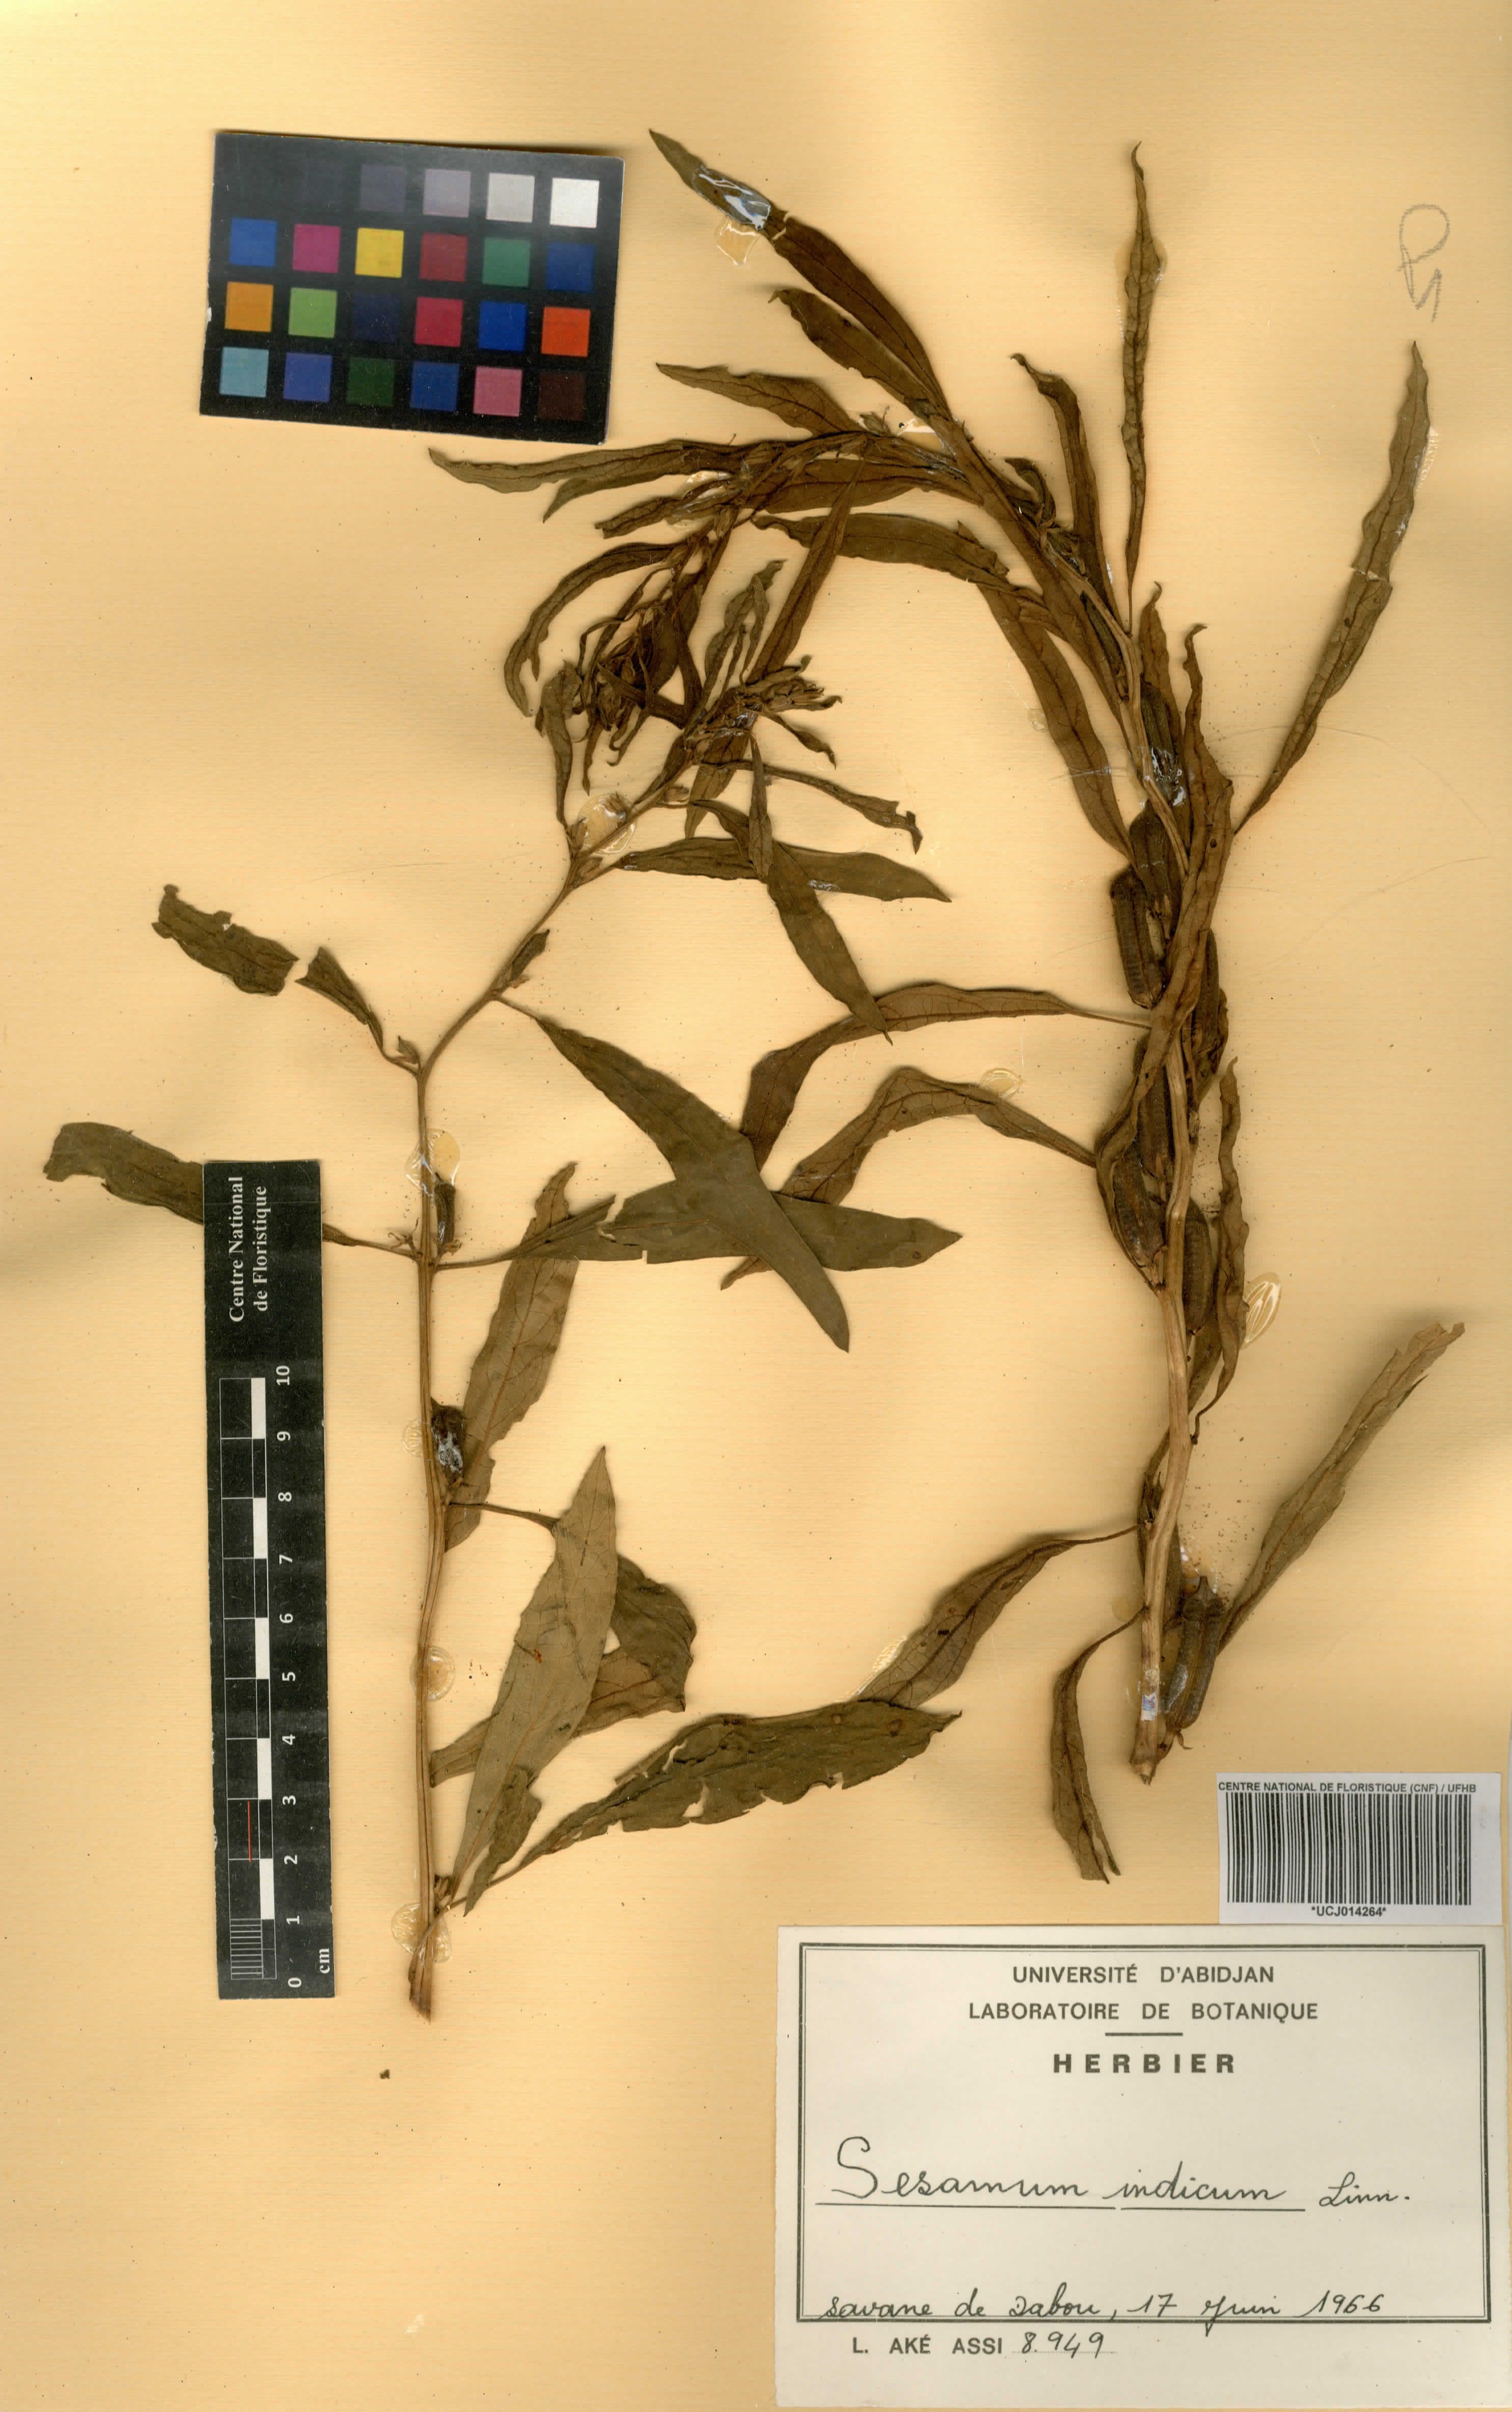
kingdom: Plantae
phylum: Tracheophyta
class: Magnoliopsida
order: Lamiales
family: Pedaliaceae
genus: Sesamum
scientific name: Sesamum indicum
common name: Sesame
